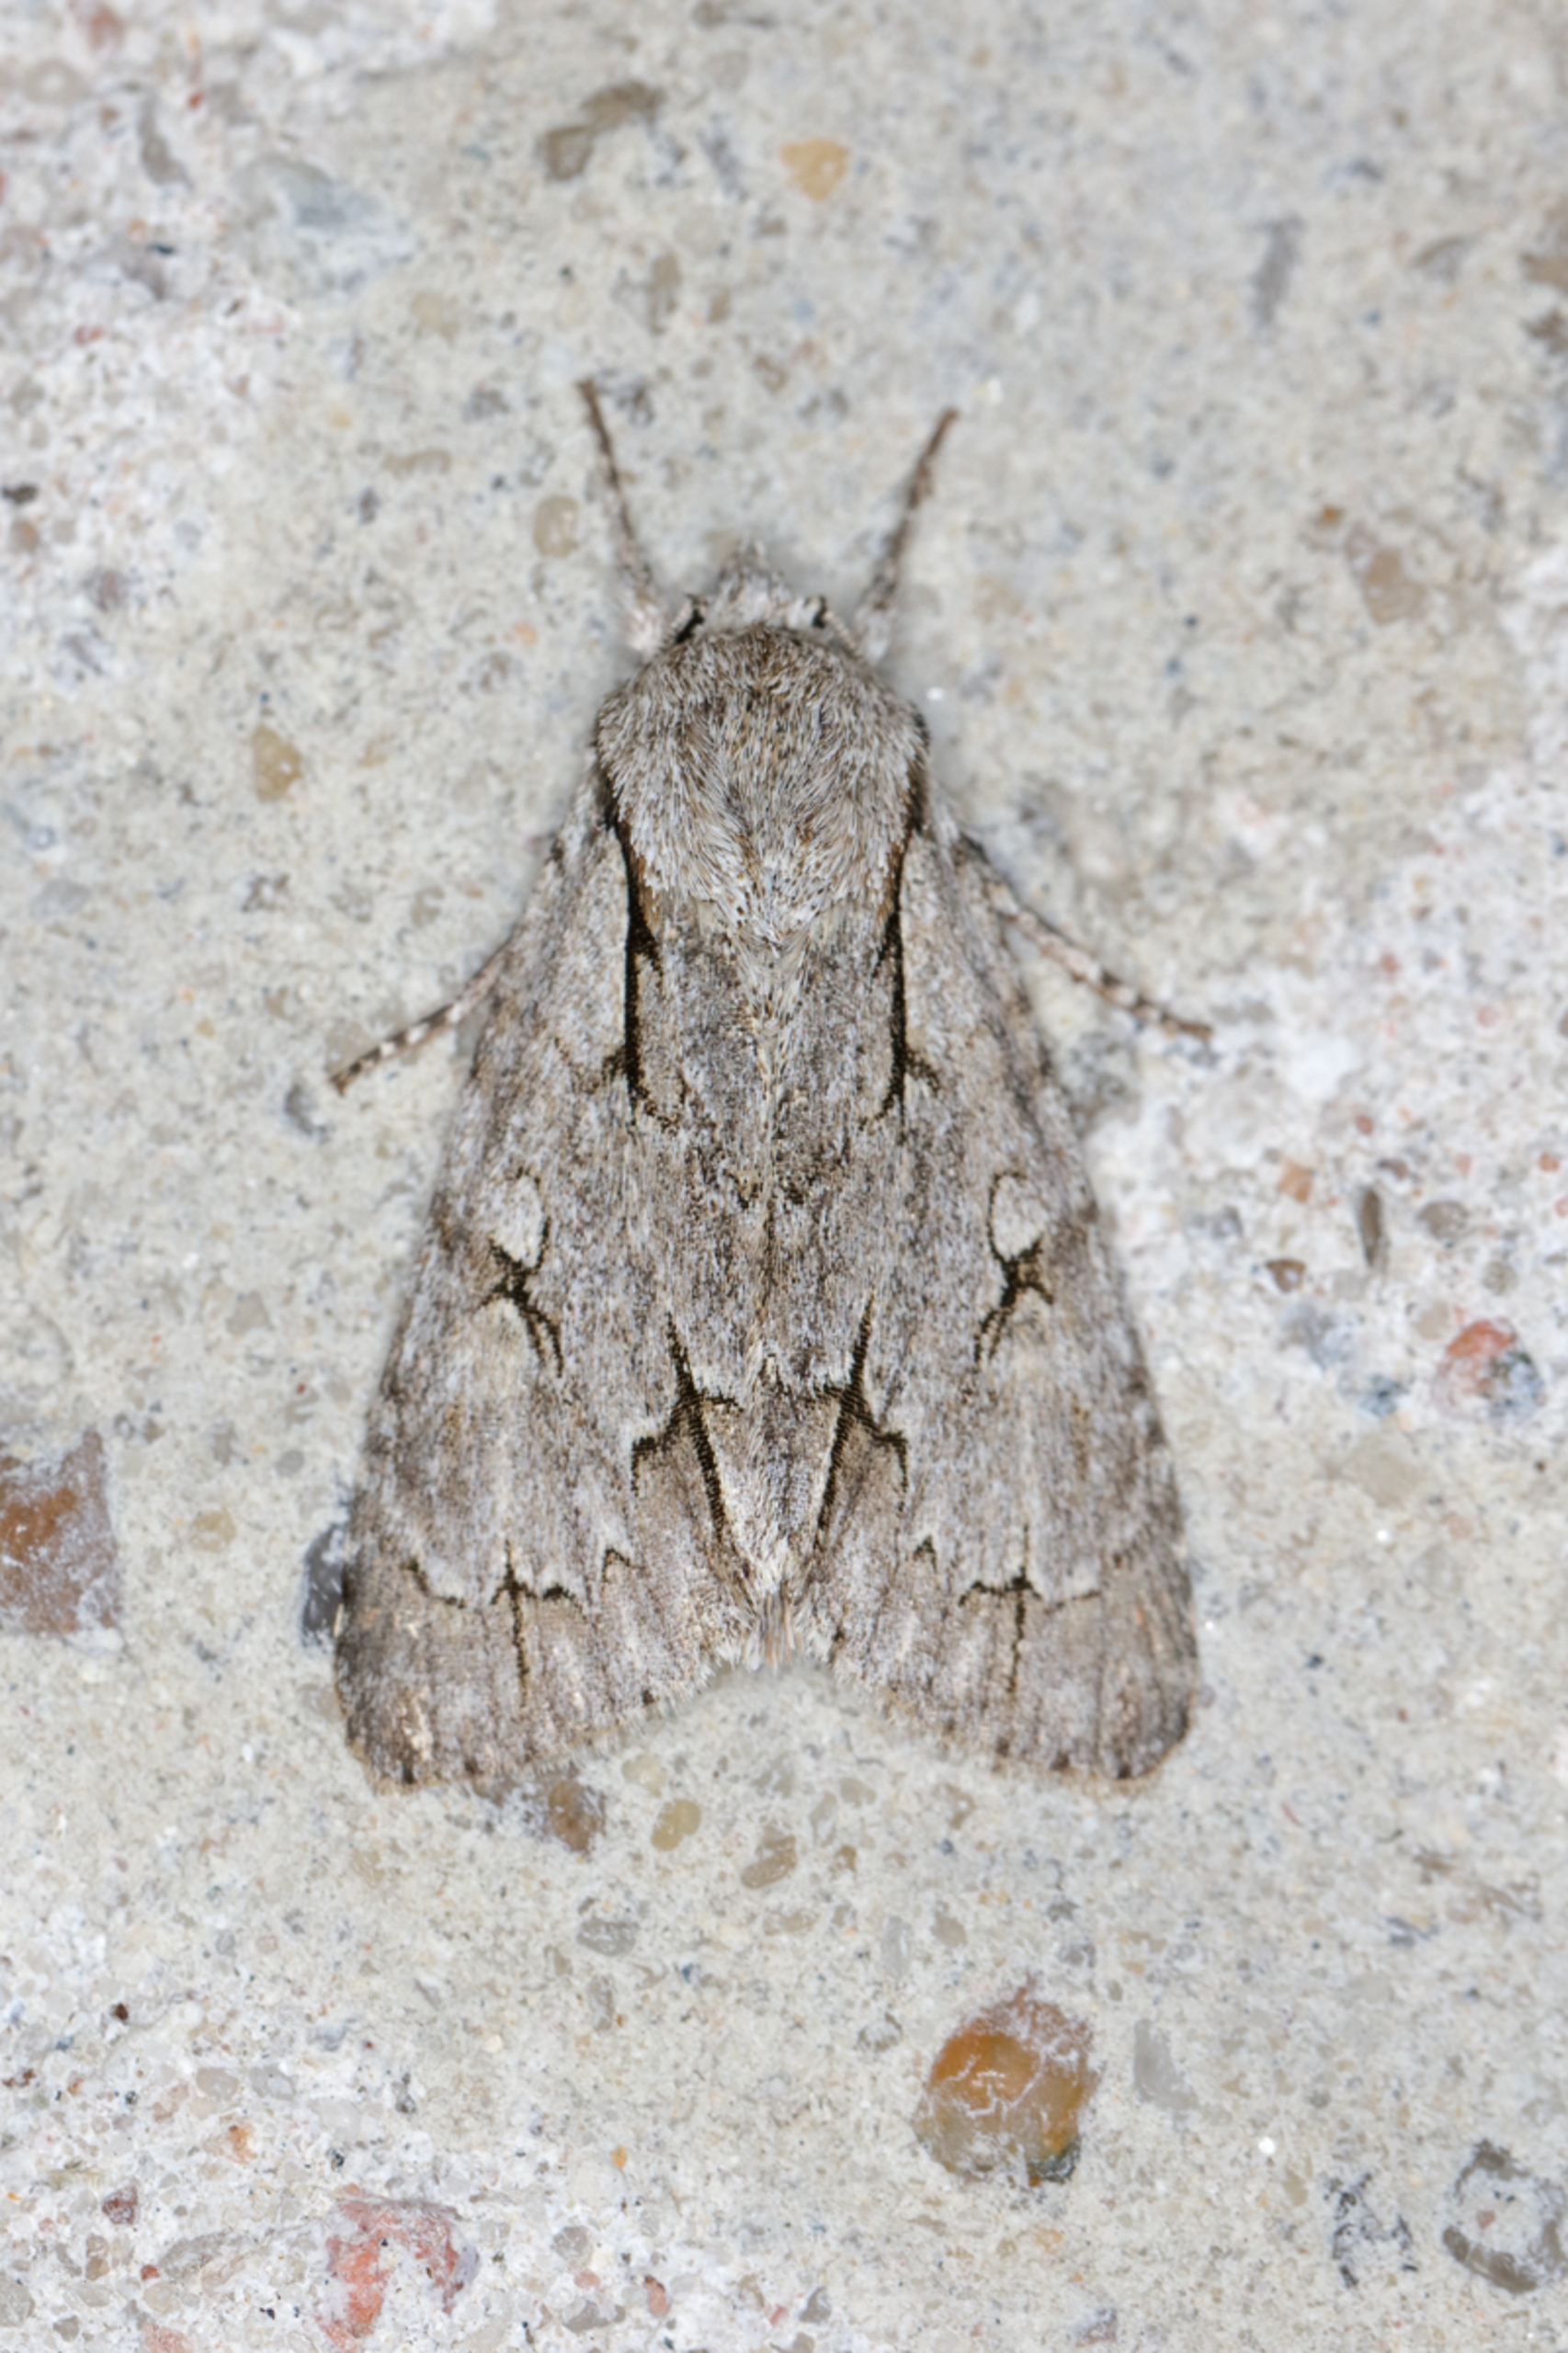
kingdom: Animalia
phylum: Arthropoda
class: Insecta
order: Lepidoptera
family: Noctuidae
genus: Acronicta
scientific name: Acronicta psi
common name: Psi-ugle
